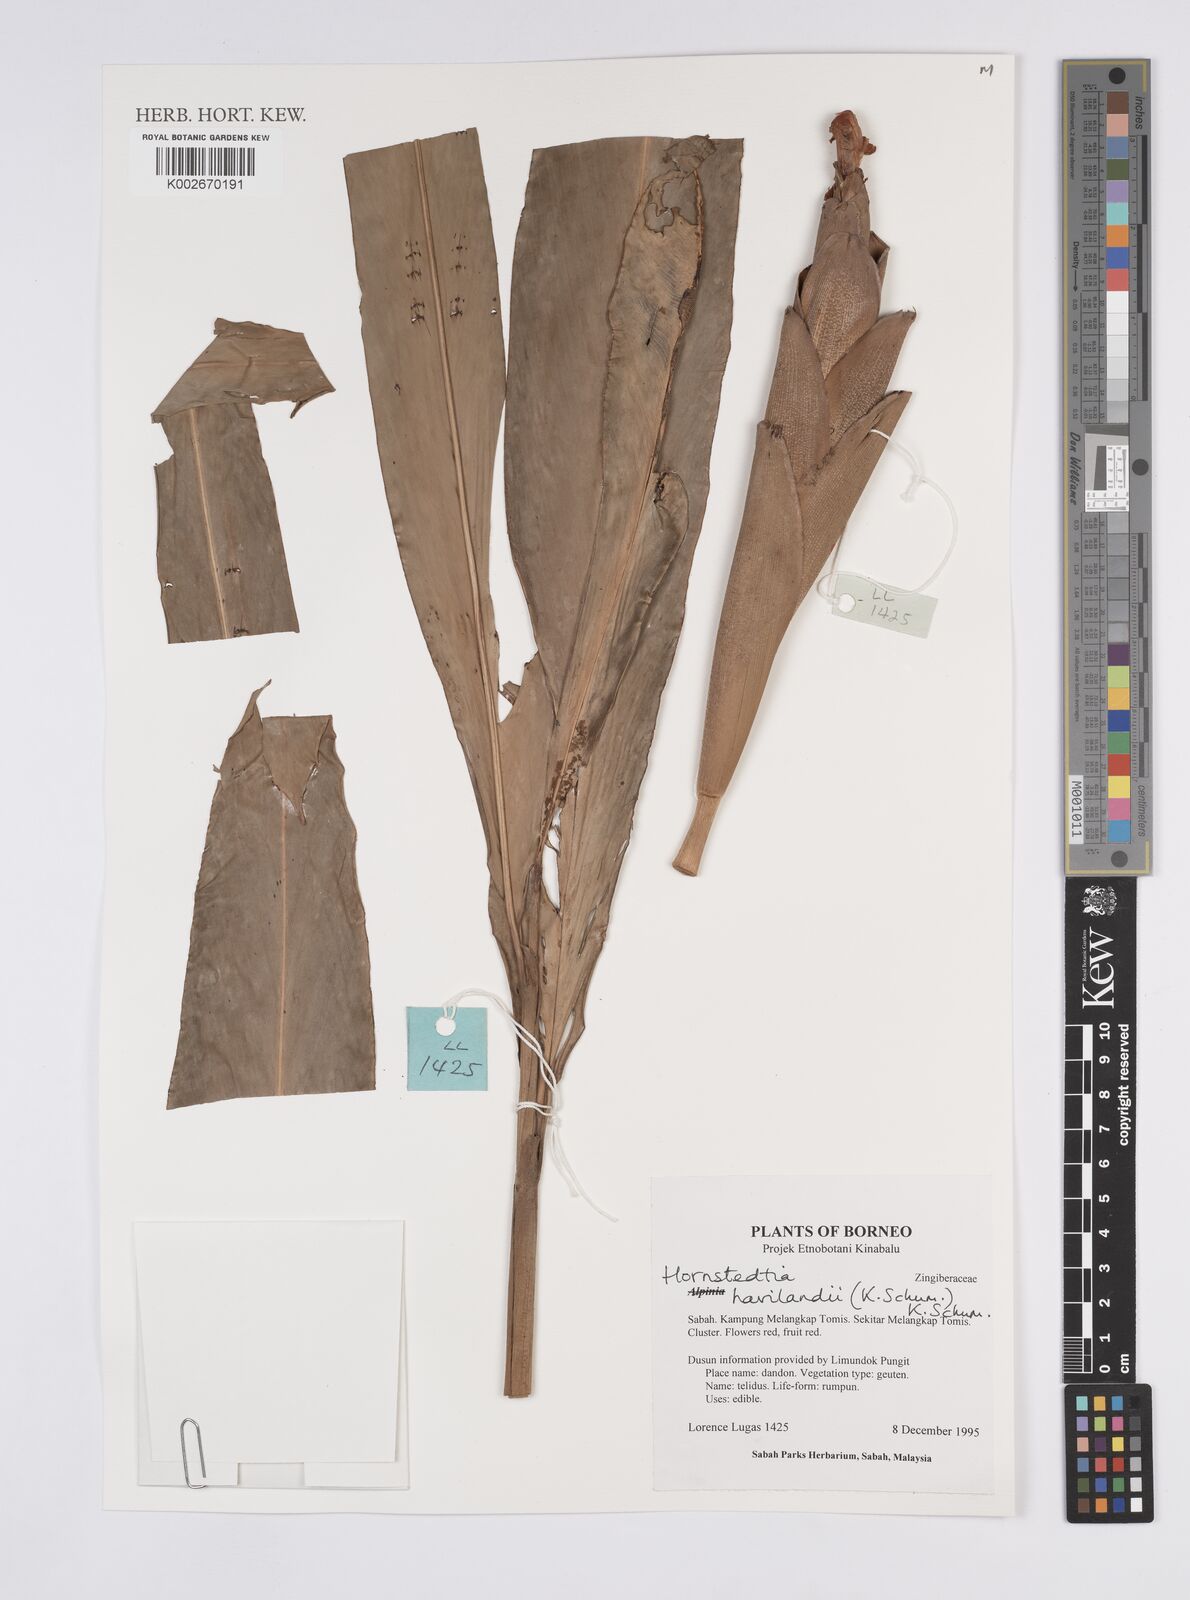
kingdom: Plantae
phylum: Tracheophyta
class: Liliopsida
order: Zingiberales
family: Zingiberaceae
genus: Hornstedtia
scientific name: Hornstedtia havilandii
